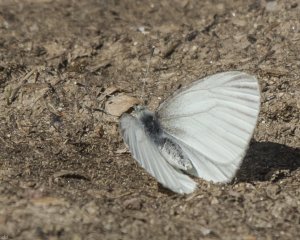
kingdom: Animalia
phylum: Arthropoda
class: Insecta
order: Lepidoptera
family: Pieridae
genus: Pieris
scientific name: Pieris oleracea
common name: Mustard White
